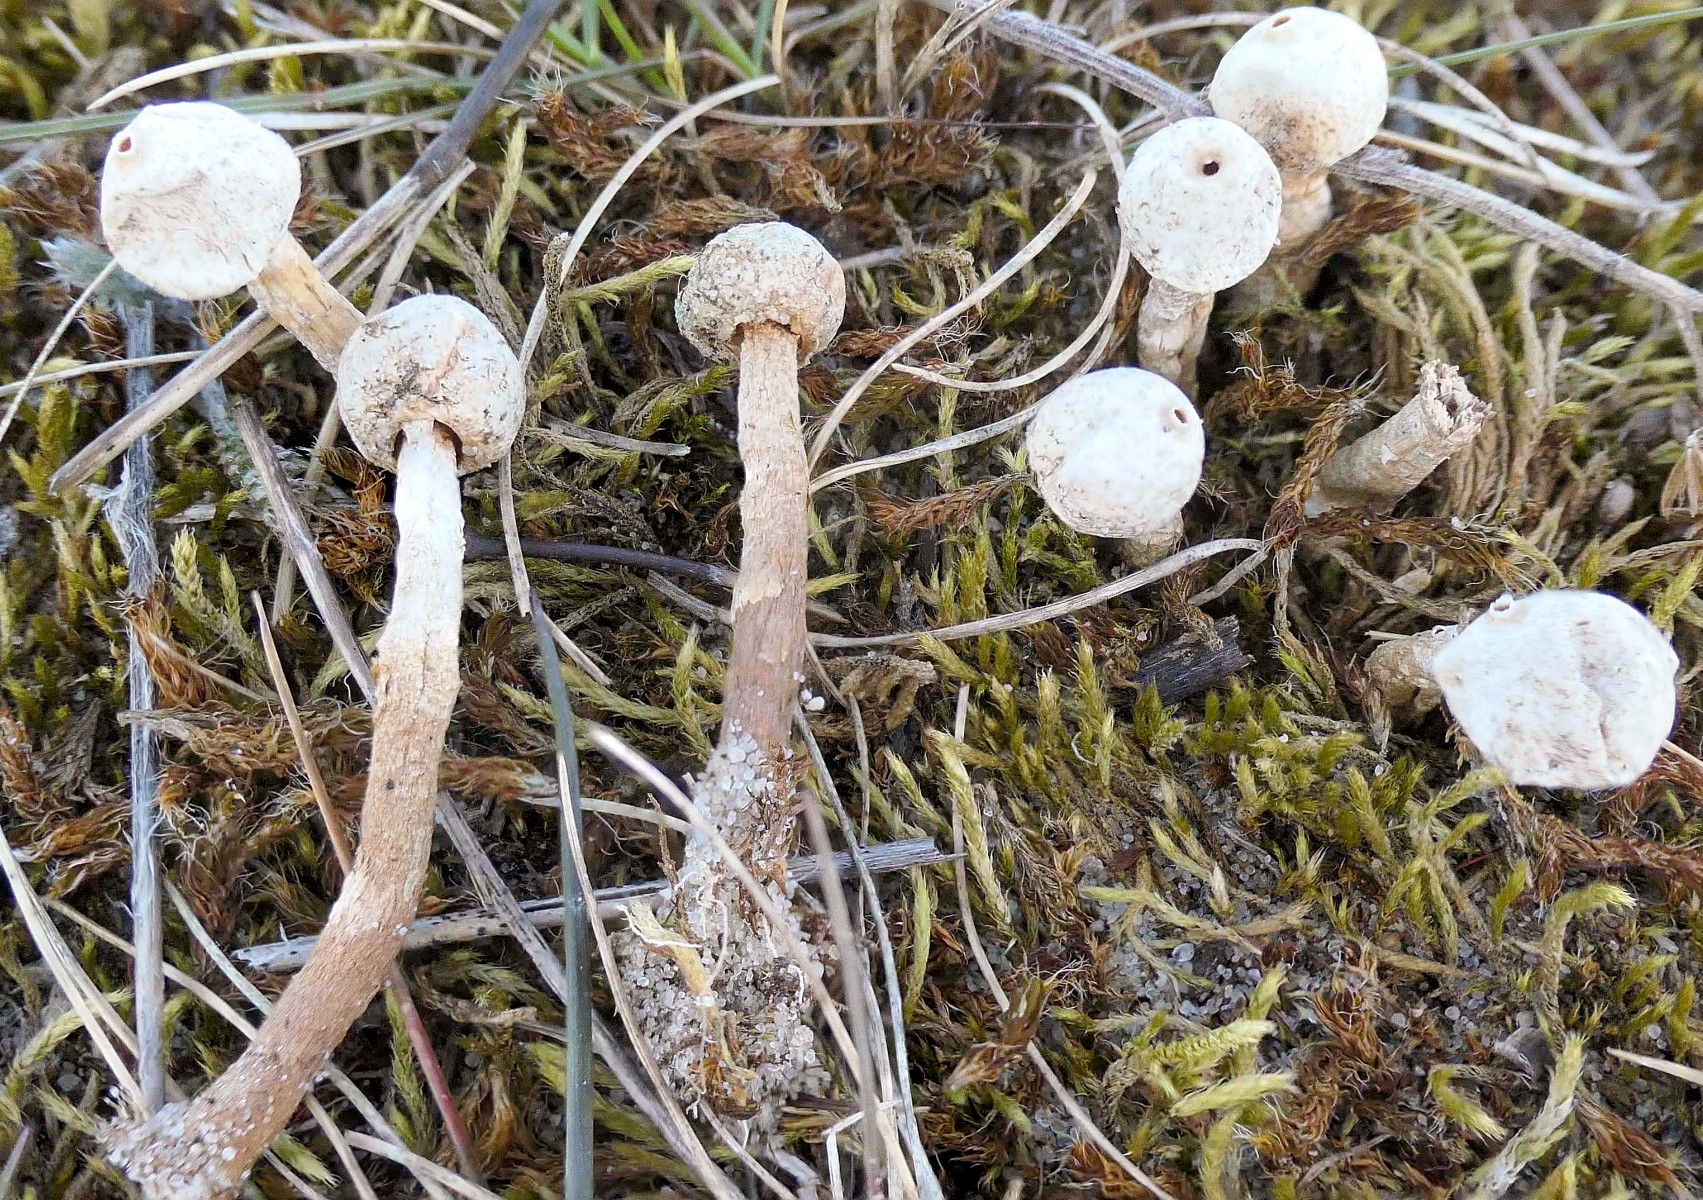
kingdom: Fungi
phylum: Basidiomycota
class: Agaricomycetes
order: Agaricales
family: Agaricaceae
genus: Tulostoma
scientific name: Tulostoma brumale
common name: vinter-stilkbovist
